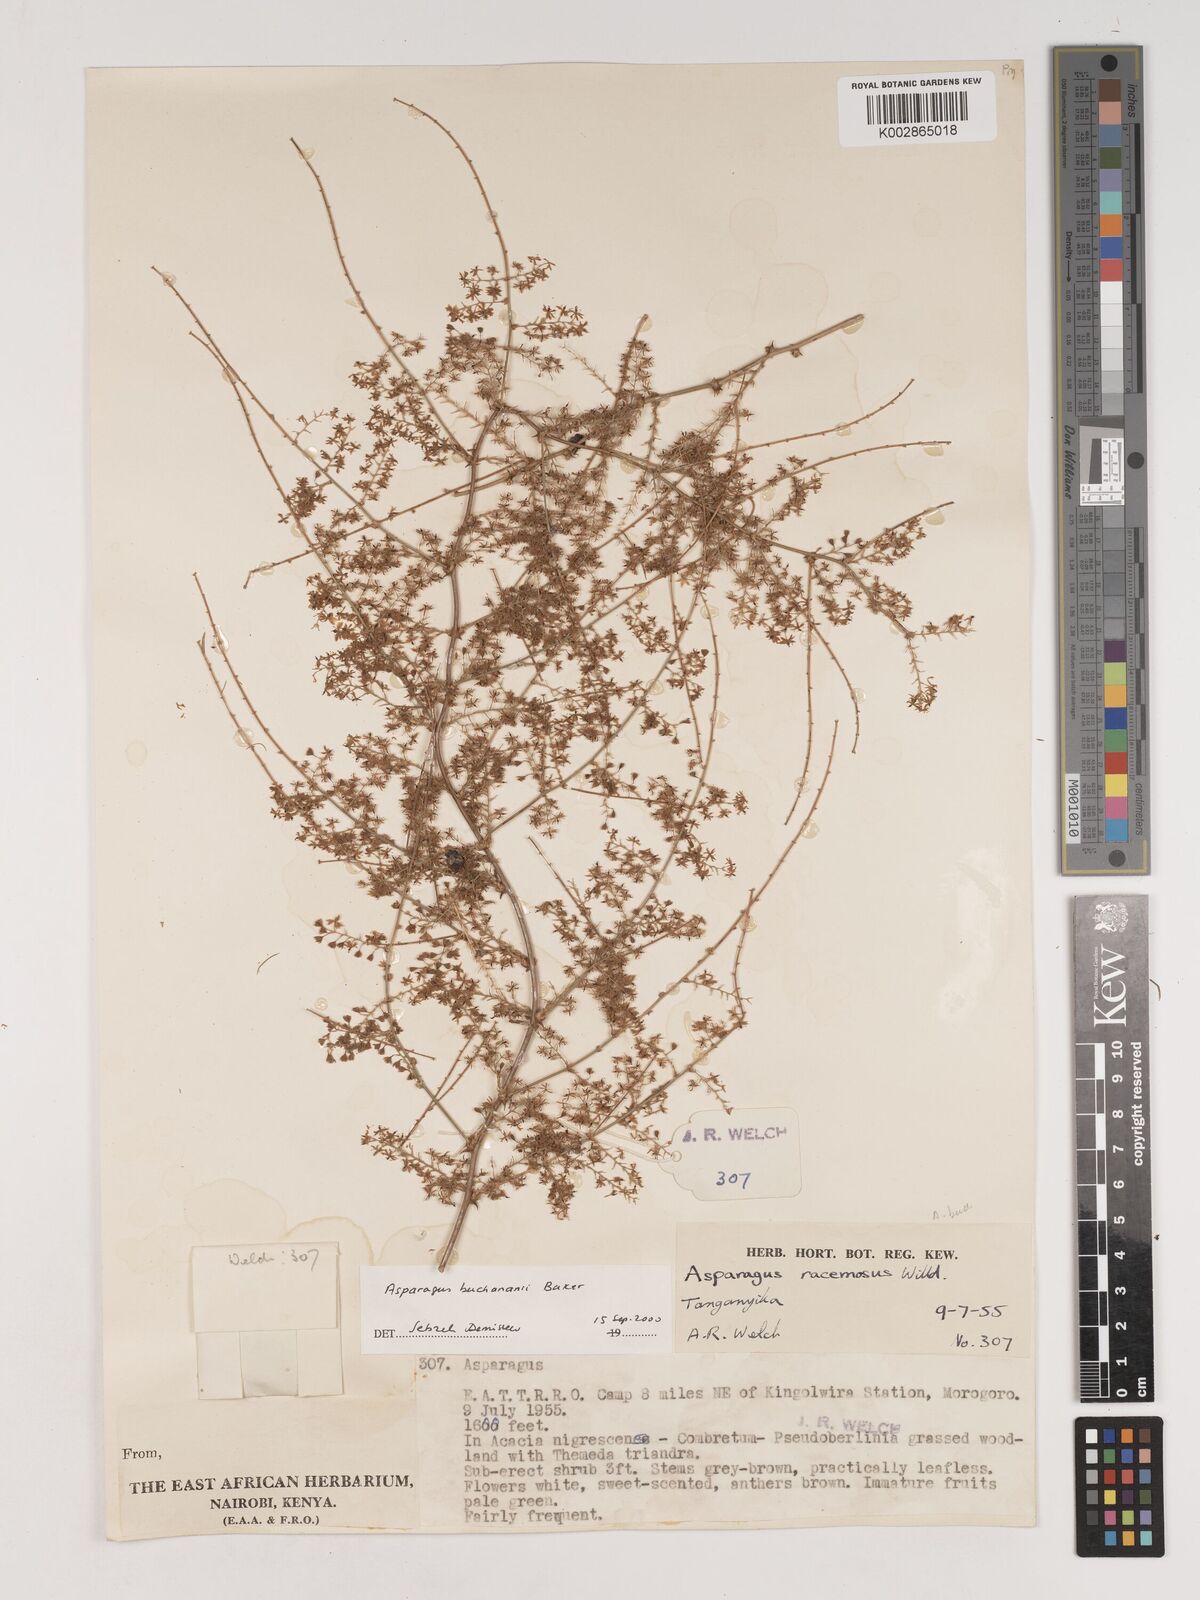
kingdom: Plantae
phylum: Tracheophyta
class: Liliopsida
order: Asparagales
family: Asparagaceae
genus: Asparagus
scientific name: Asparagus buchananii
